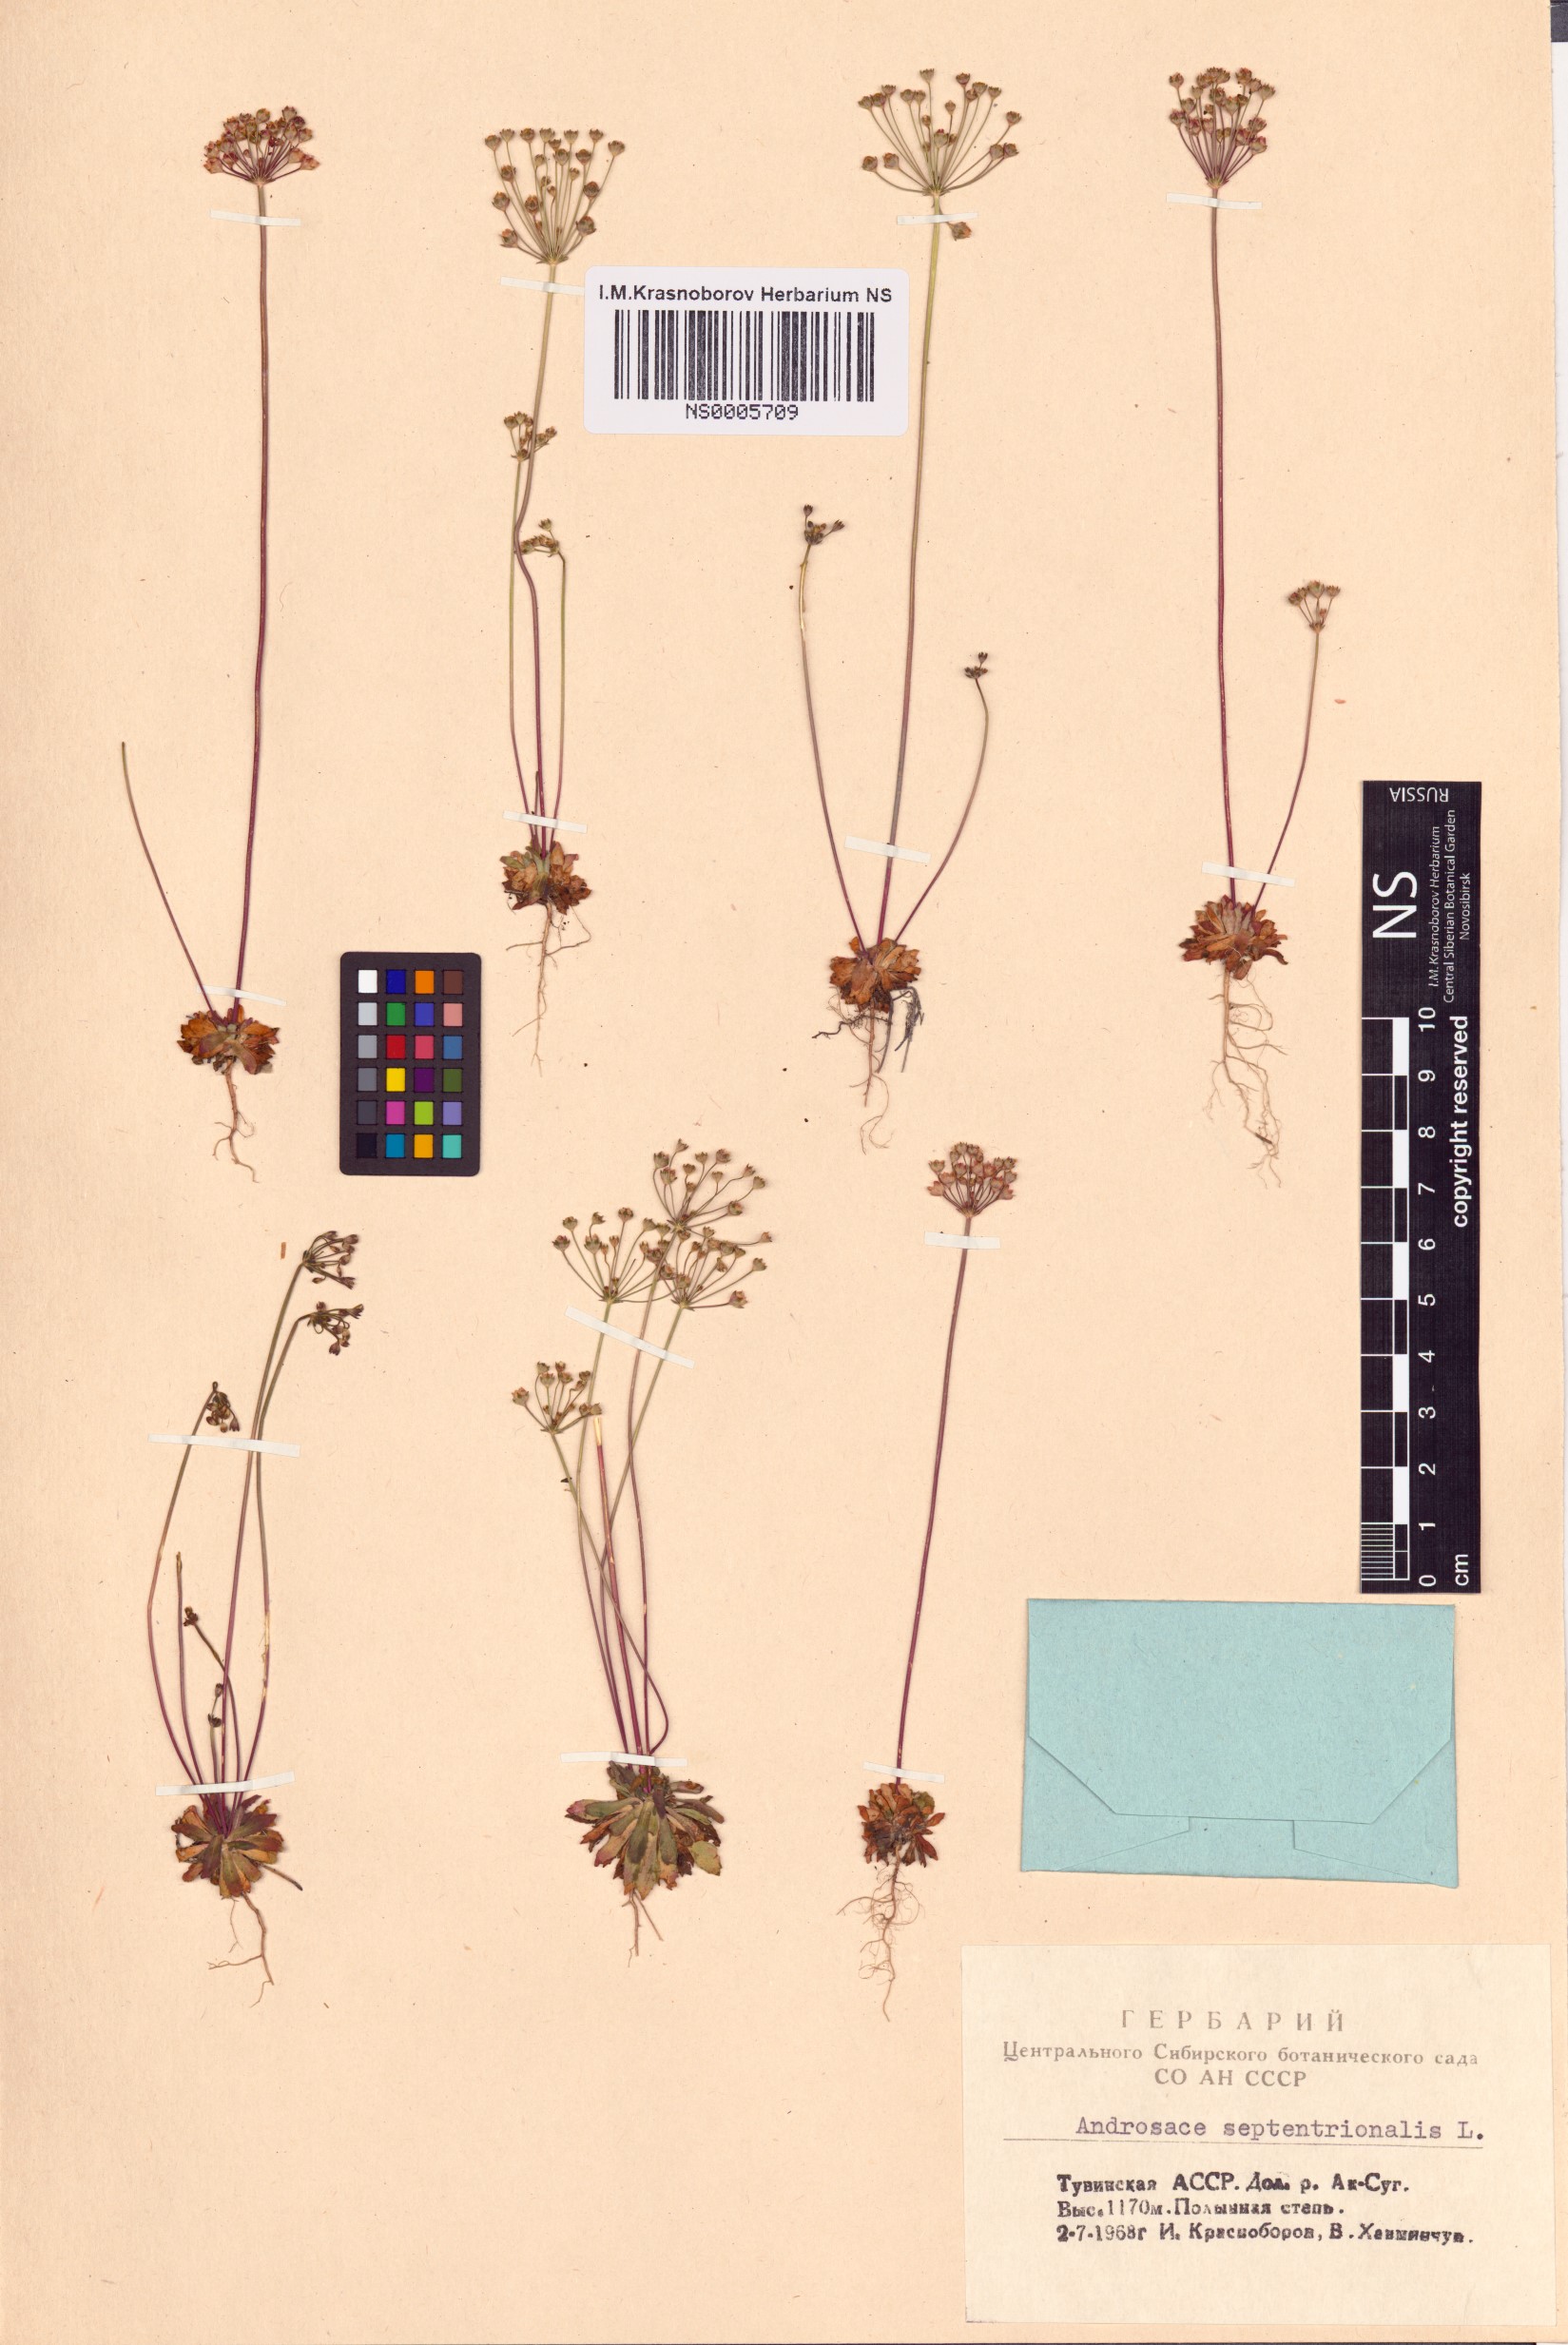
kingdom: Plantae
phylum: Tracheophyta
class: Magnoliopsida
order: Ericales
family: Primulaceae
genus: Androsace
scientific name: Androsace septentrionalis
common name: Hairy northern fairy-candelabra
